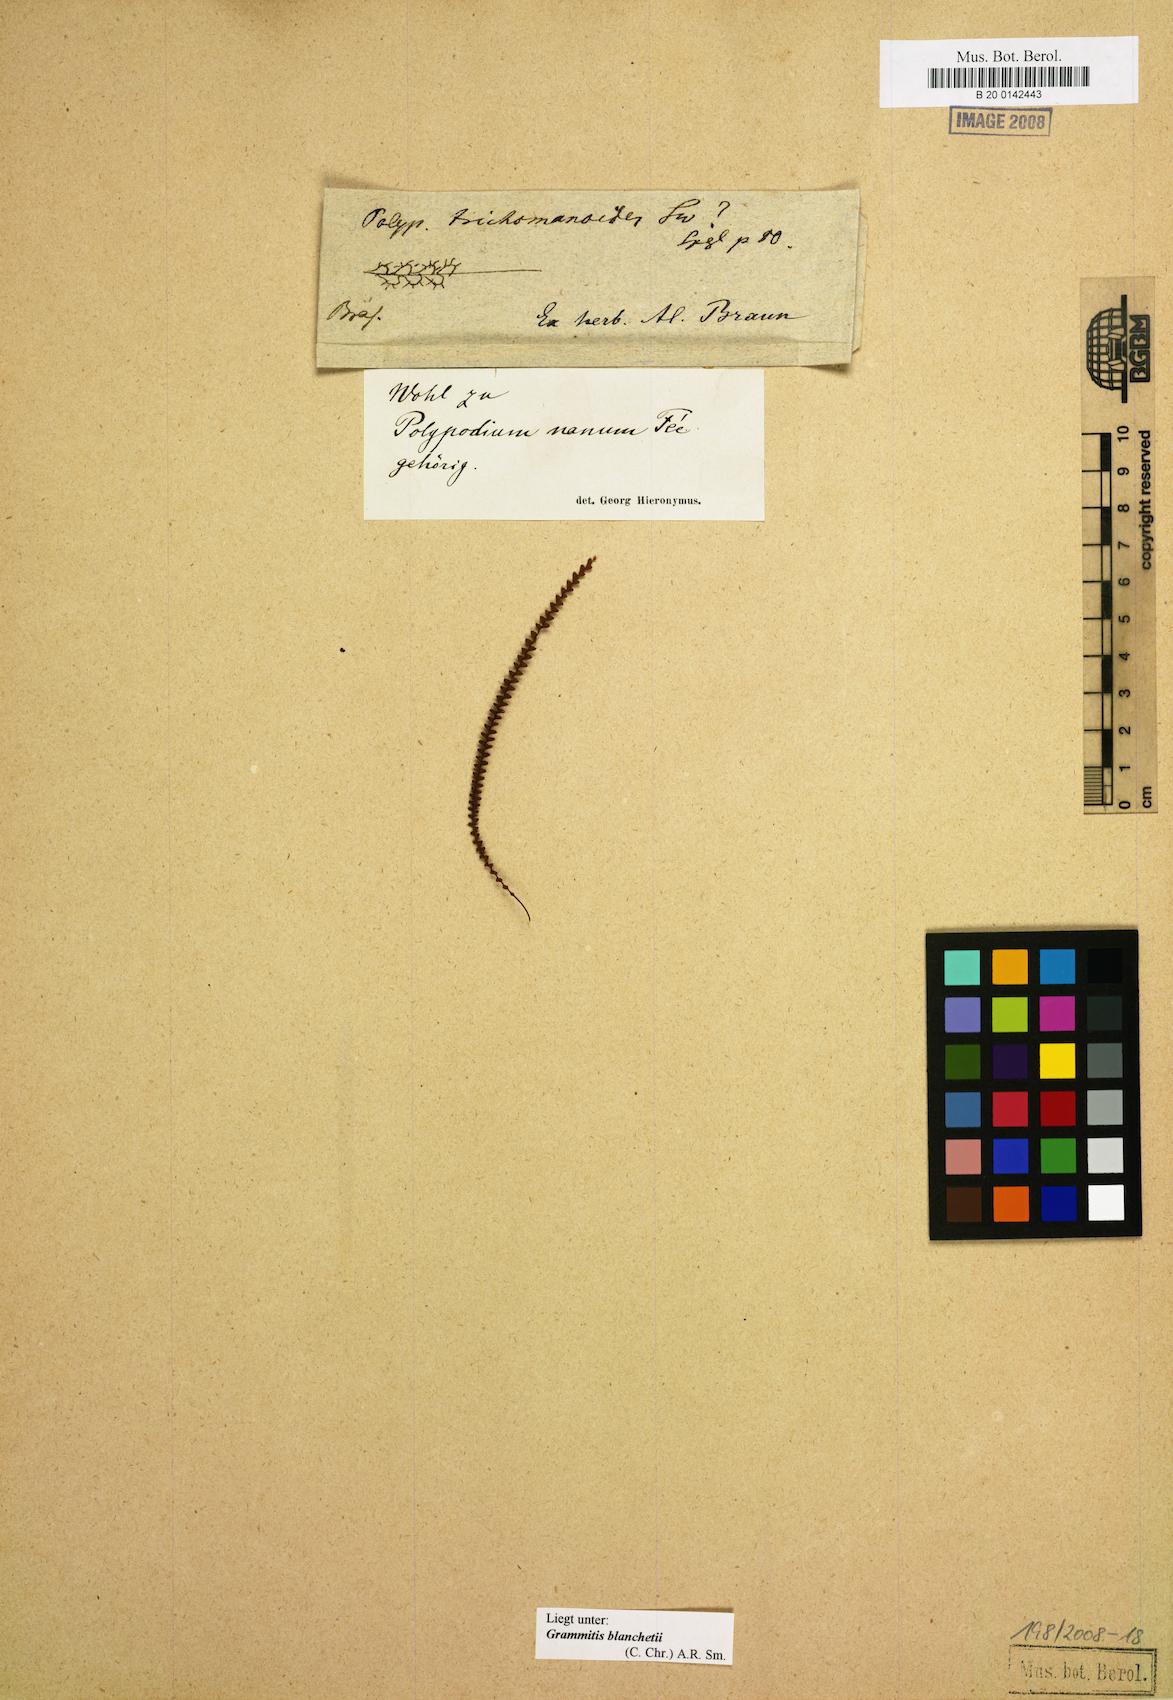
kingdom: Plantae
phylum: Tracheophyta
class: Polypodiopsida
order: Polypodiales
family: Polypodiaceae
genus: Moranopteris
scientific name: Moranopteris taenifolia
